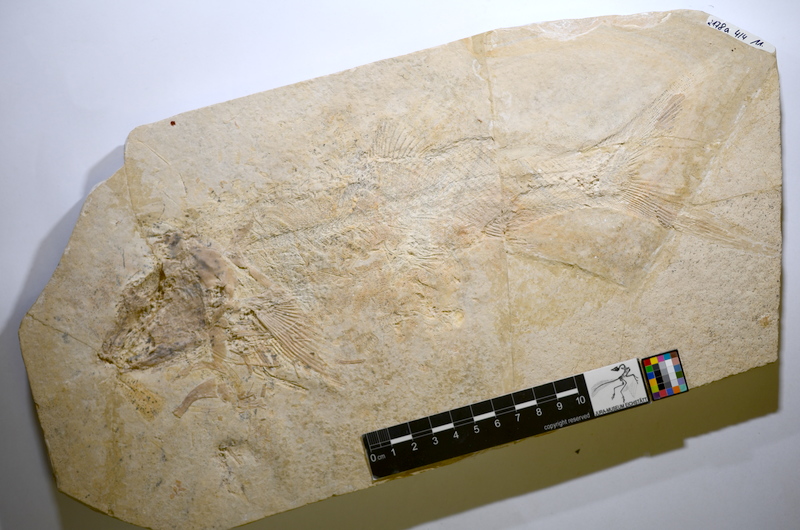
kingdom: Animalia
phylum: Chordata
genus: Elongofuro
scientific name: Elongofuro
